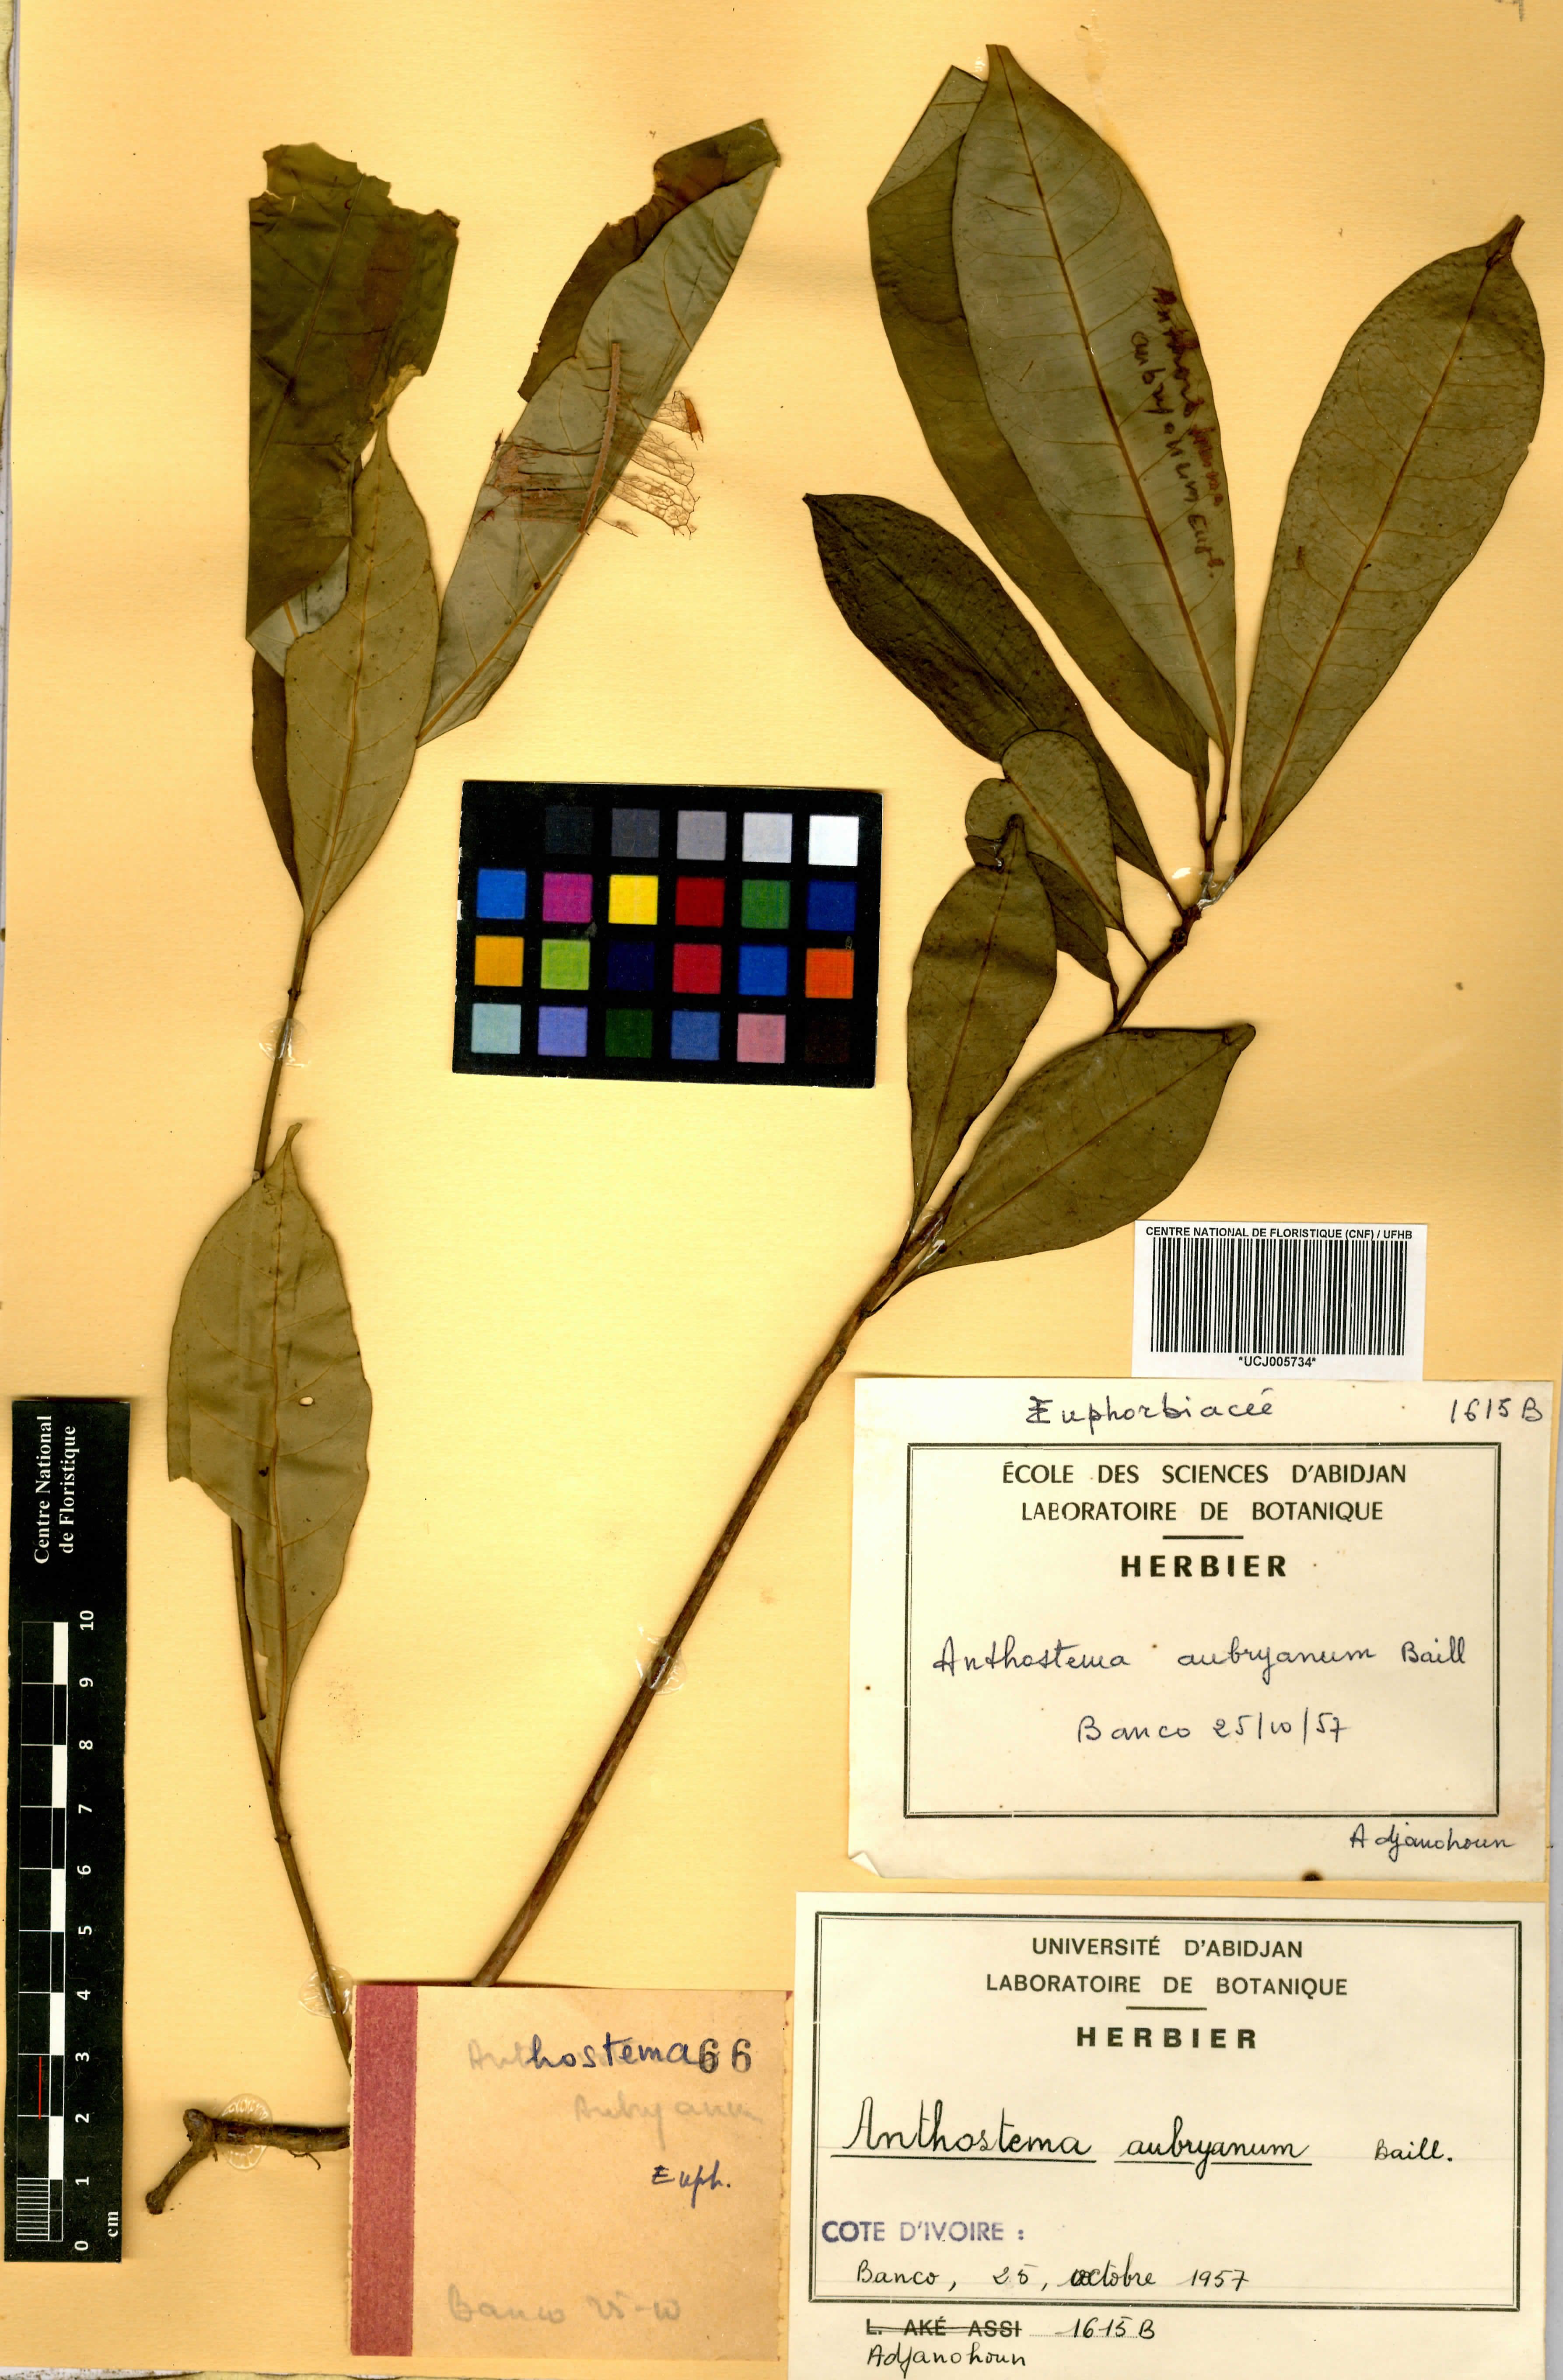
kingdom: Plantae
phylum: Tracheophyta
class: Magnoliopsida
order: Malpighiales
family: Euphorbiaceae
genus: Anthostema
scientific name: Anthostema aubryanum
